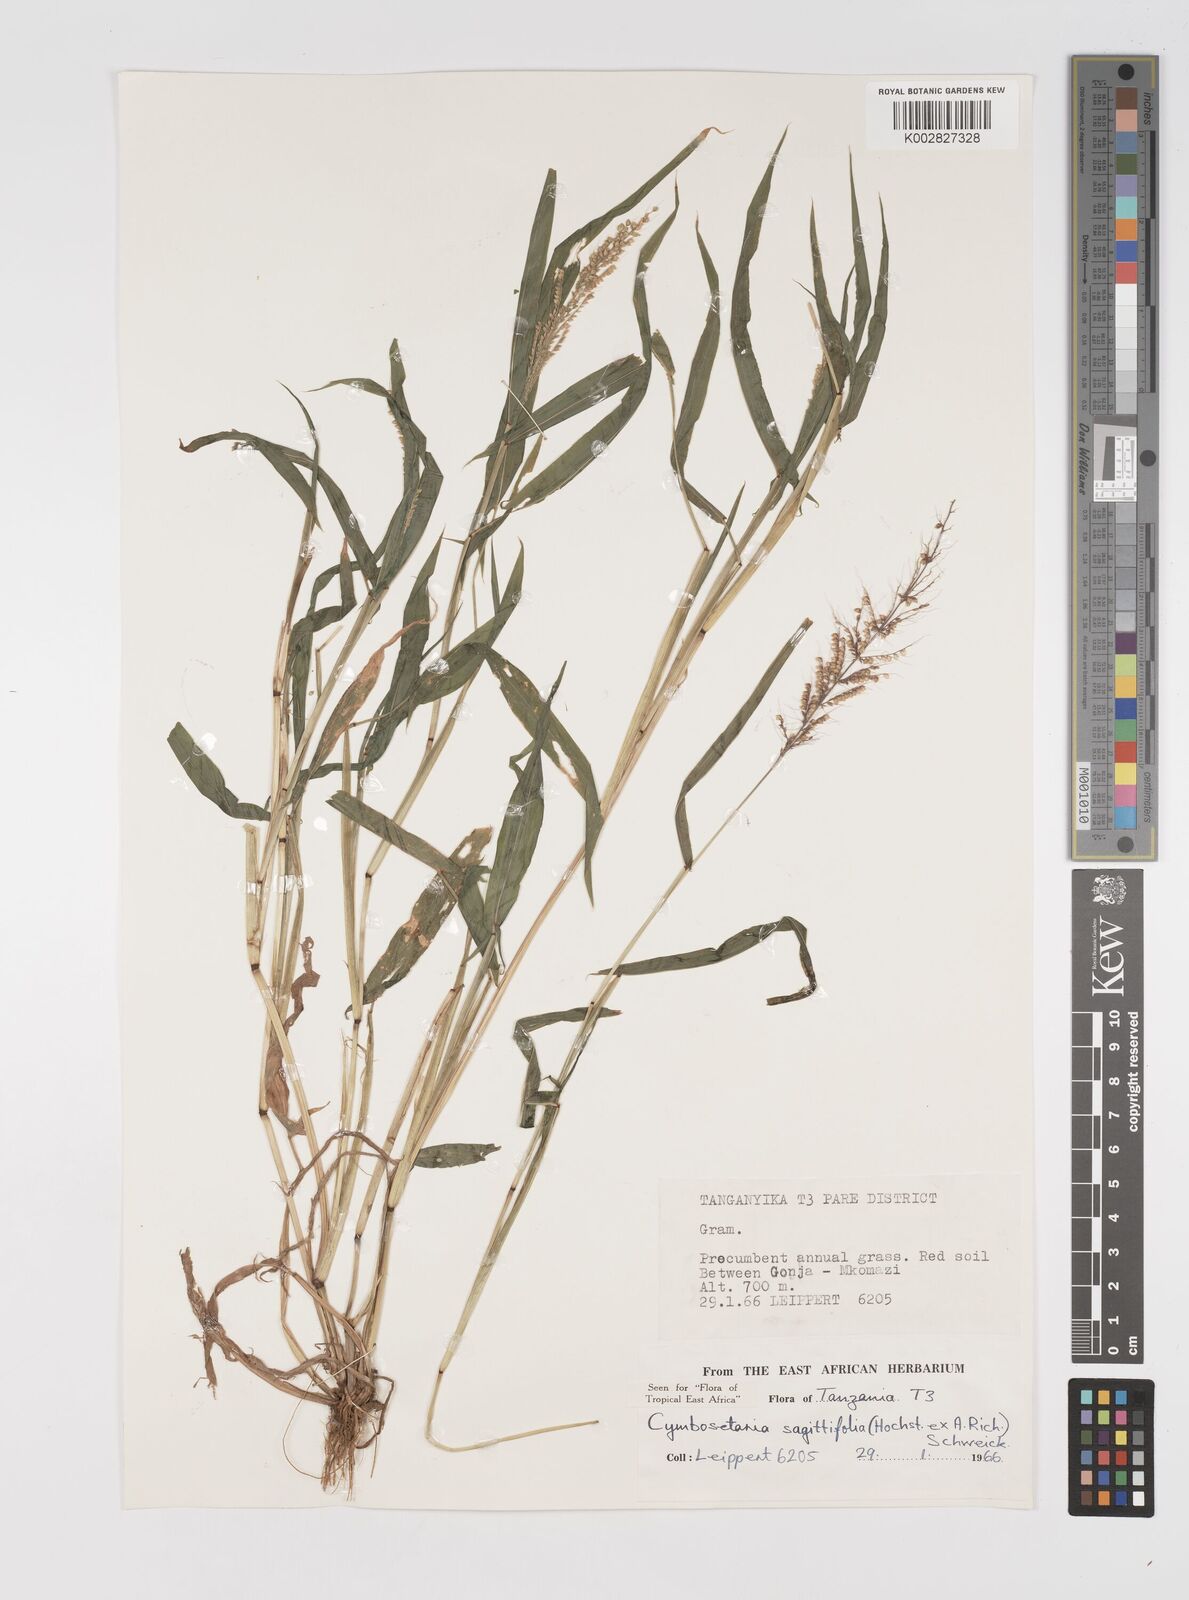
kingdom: Plantae
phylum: Tracheophyta
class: Liliopsida
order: Poales
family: Poaceae
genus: Setaria
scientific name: Setaria sagittifolia
